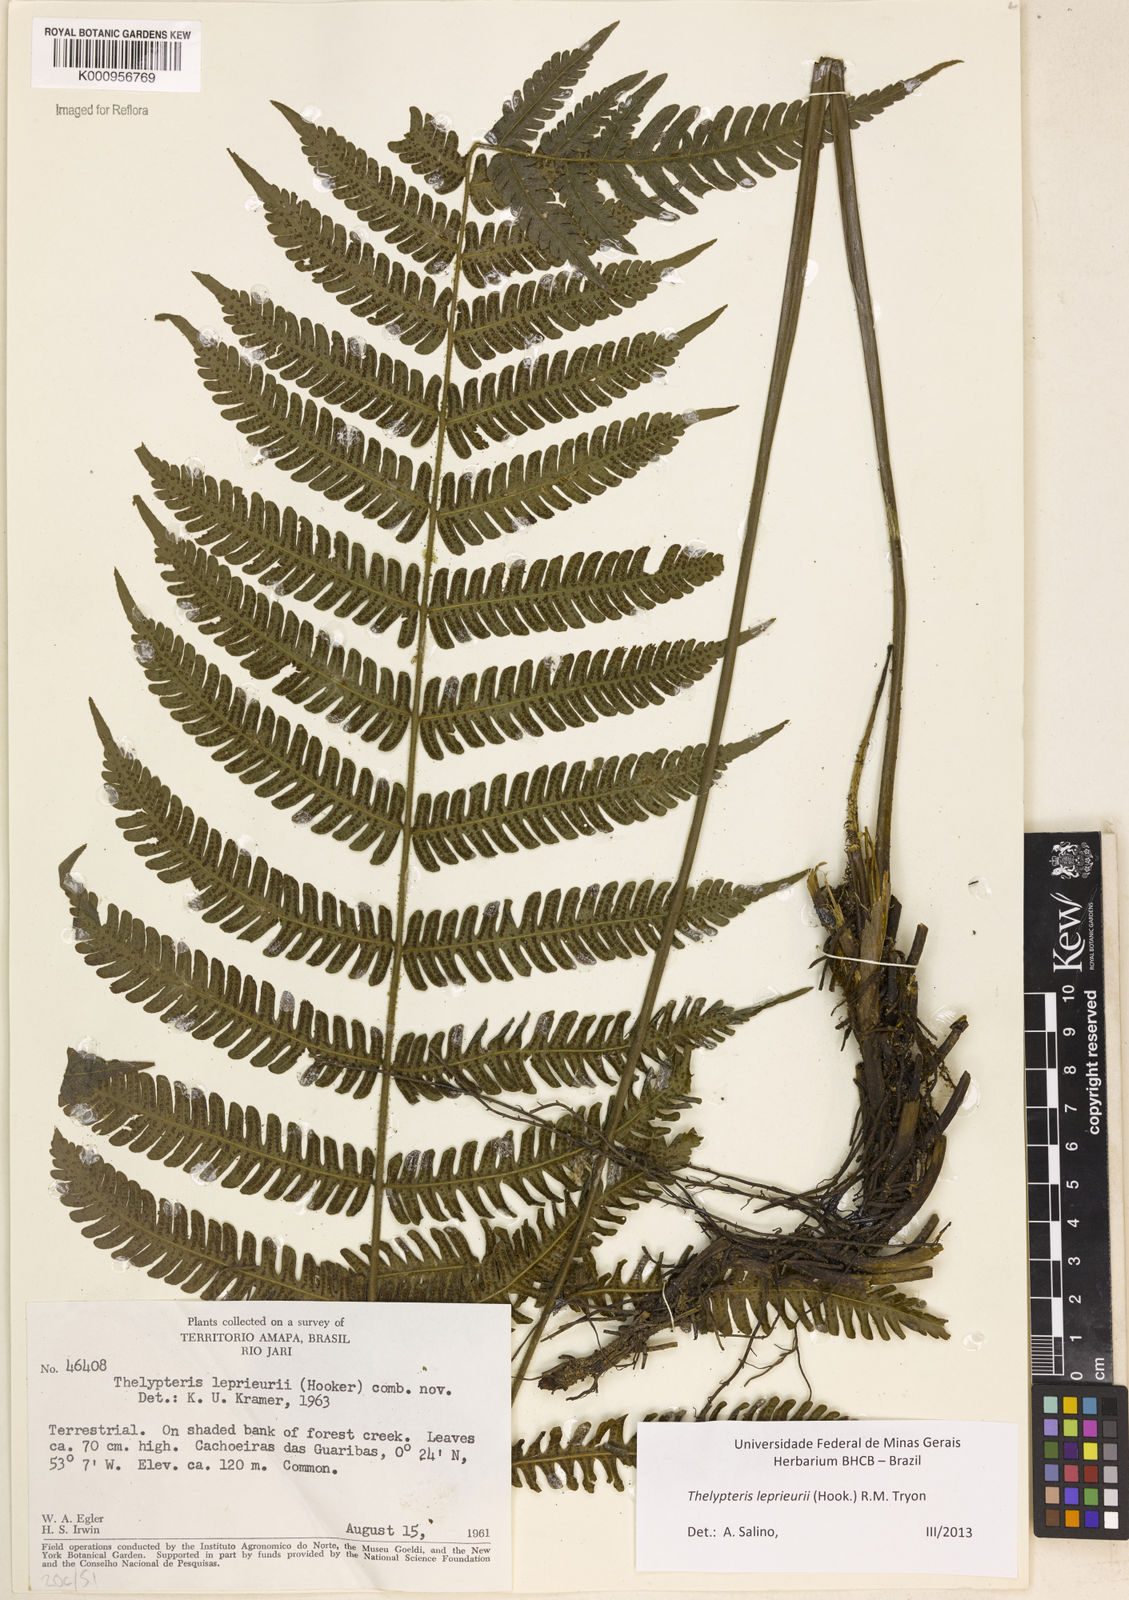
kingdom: Plantae
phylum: Tracheophyta
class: Polypodiopsida
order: Polypodiales
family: Thelypteridaceae
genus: Steiropteris
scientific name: Steiropteris leprieurii
